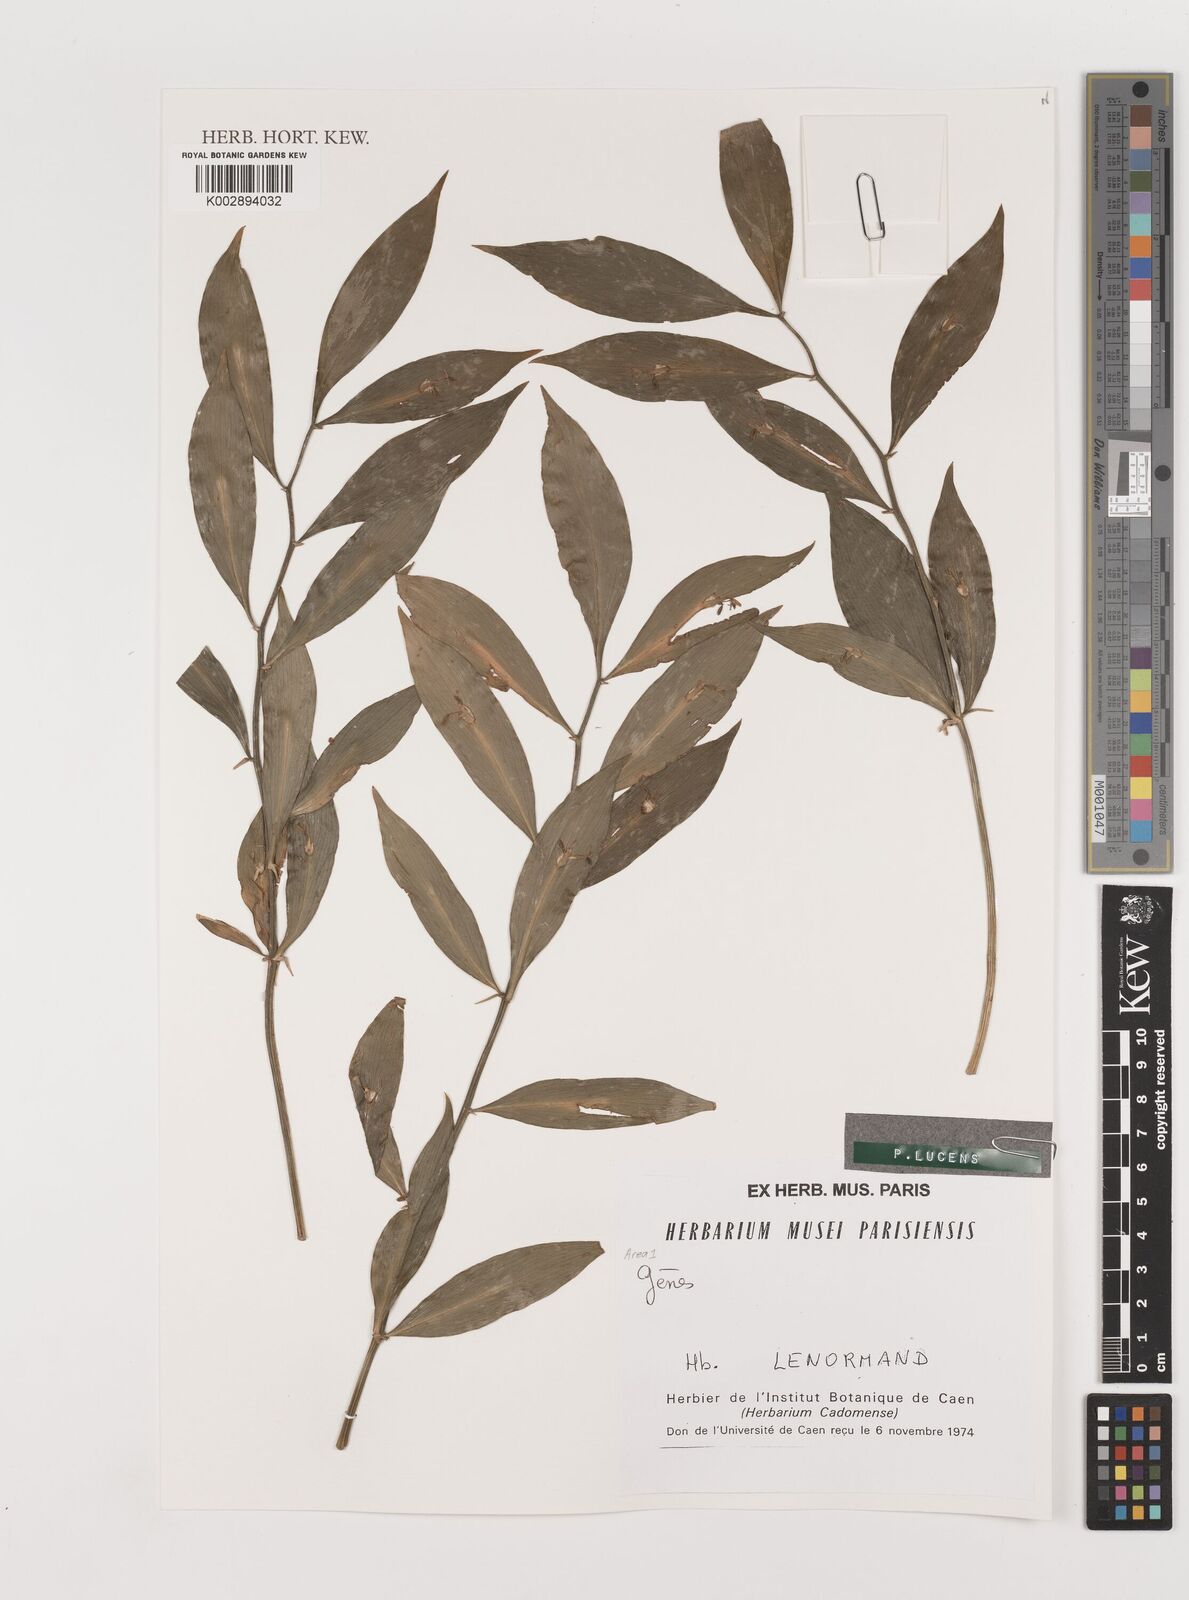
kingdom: Plantae
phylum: Tracheophyta
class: Liliopsida
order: Asparagales
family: Asparagaceae
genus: Ruscus
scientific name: Ruscus hypoglossum
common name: Spineless butcher's-broom
